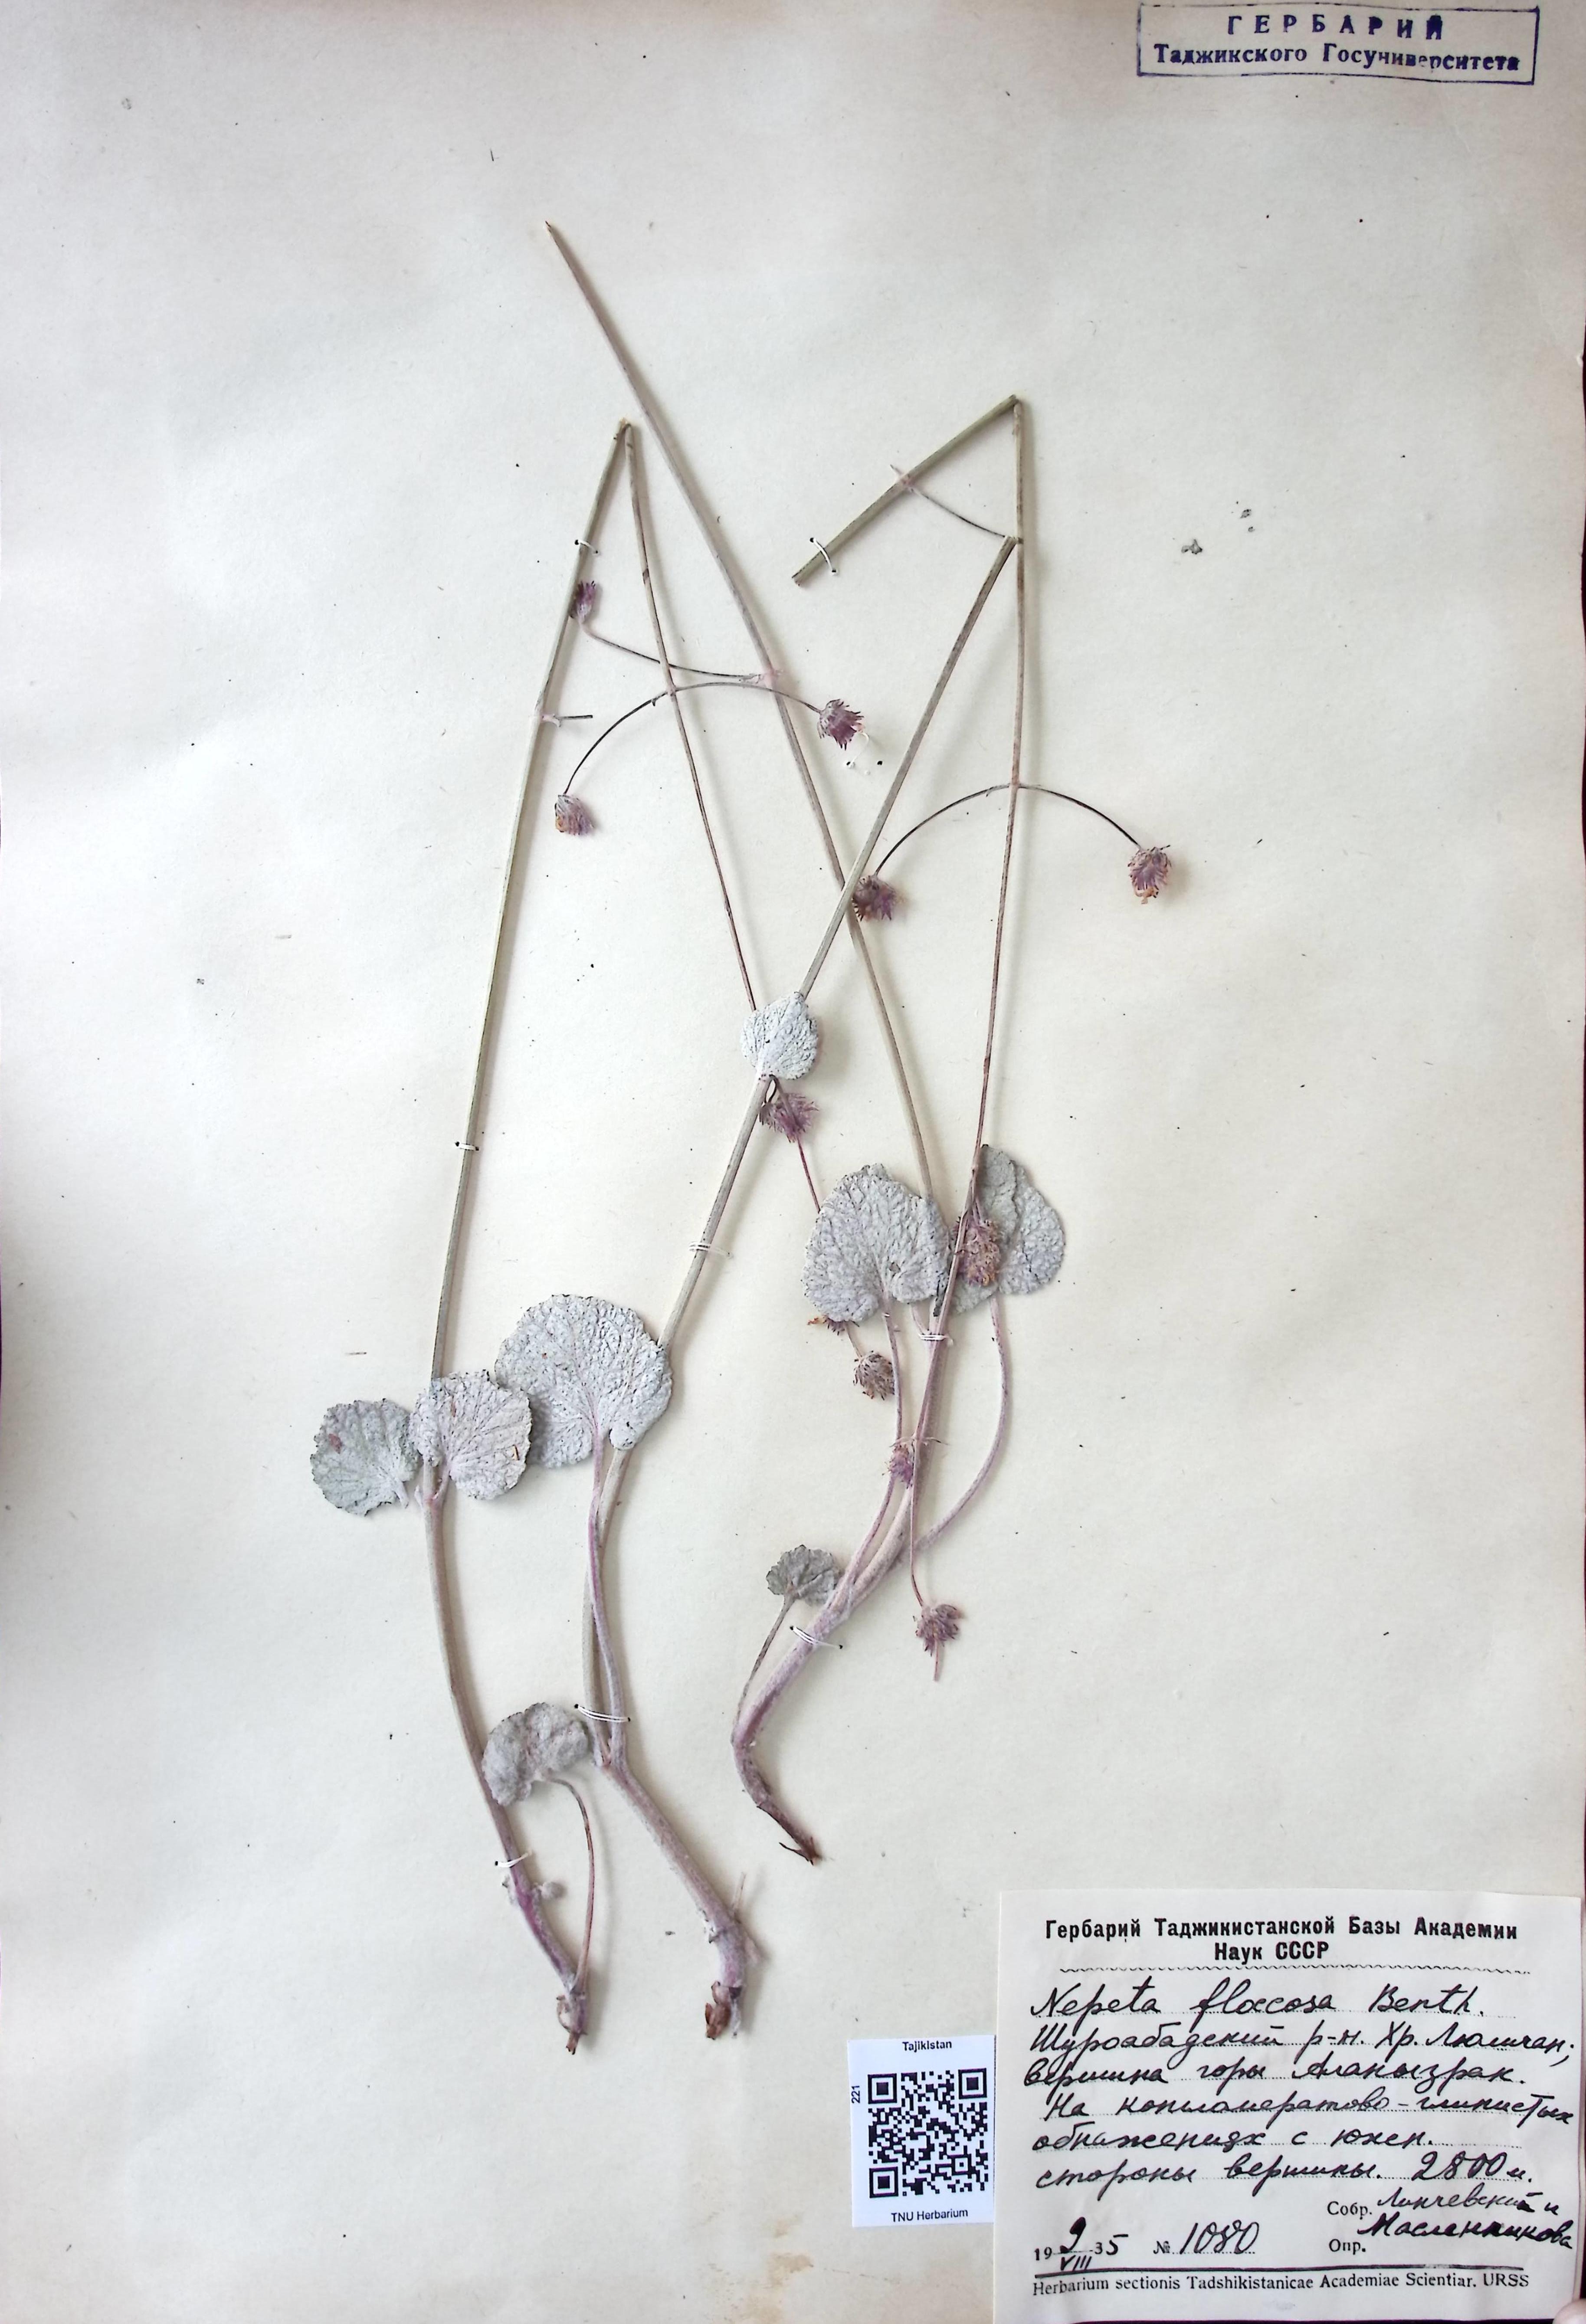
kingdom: Plantae
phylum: Tracheophyta
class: Magnoliopsida
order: Lamiales
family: Lamiaceae
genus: Nepeta
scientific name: Nepeta floccosa
